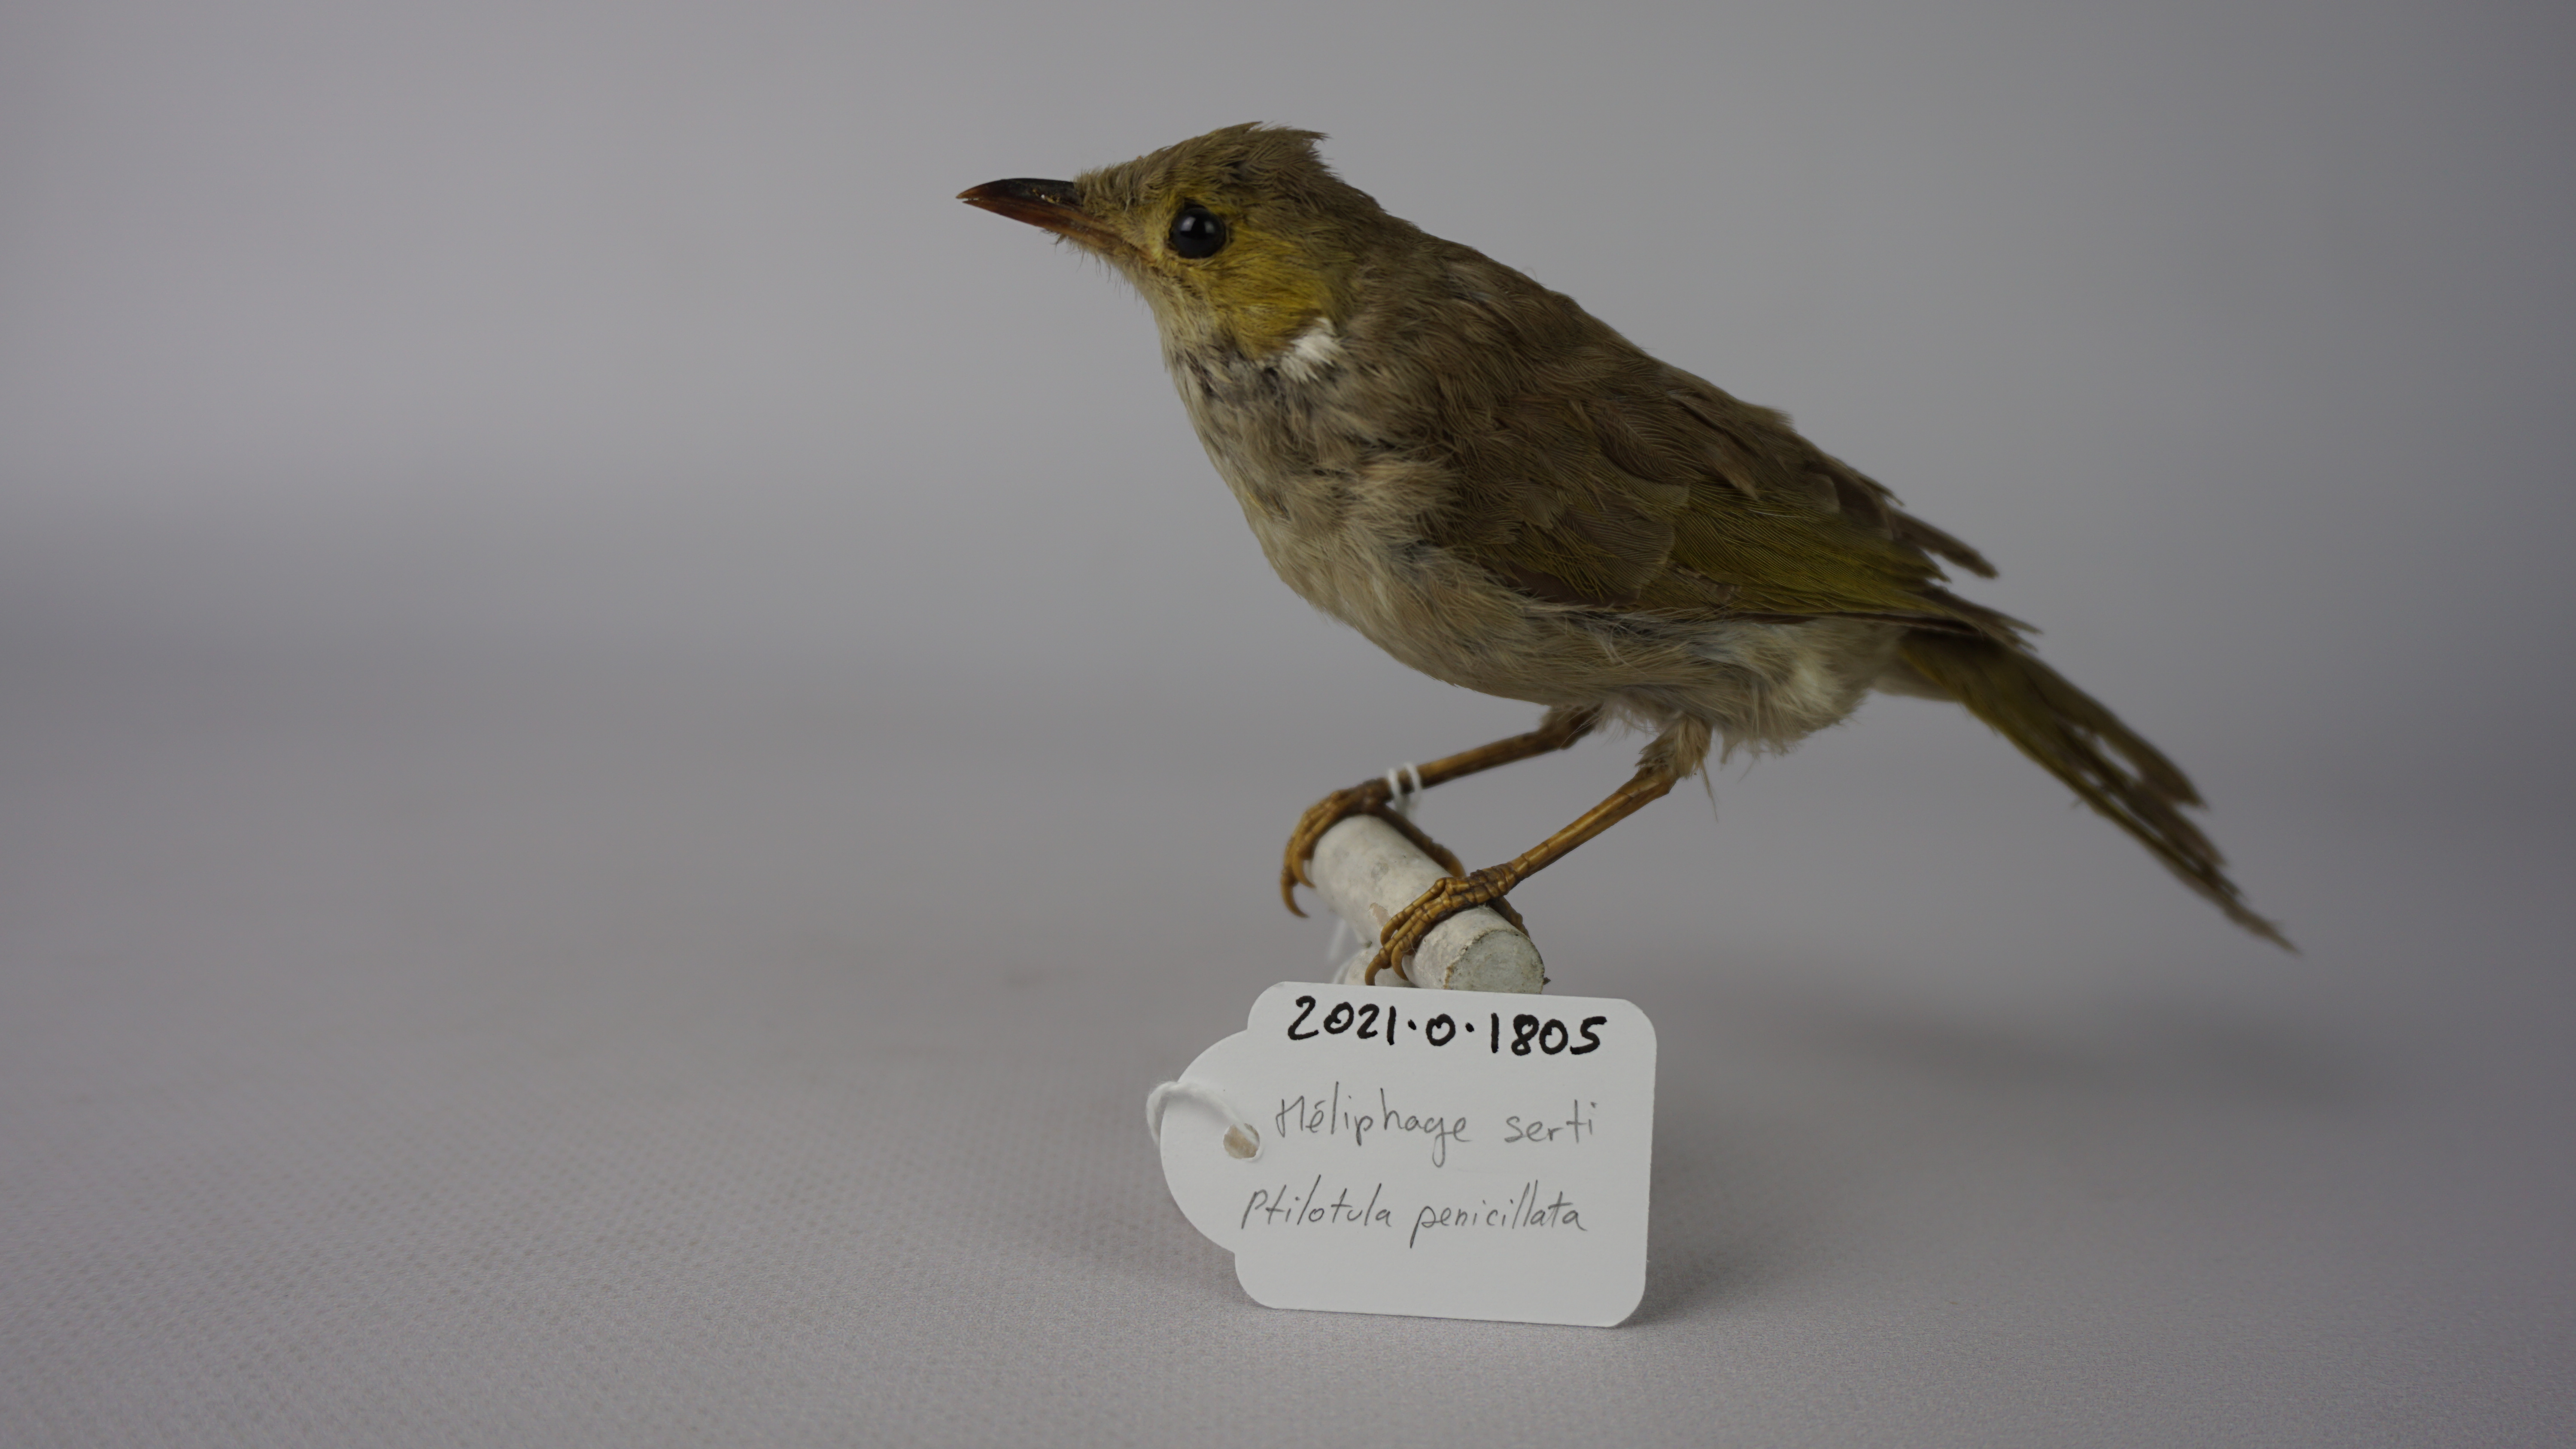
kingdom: Animalia
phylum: Chordata
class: Aves
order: Passeriformes
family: Meliphagidae
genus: Ptilotula
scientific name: Ptilotula penicillata
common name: White-plumed honeyeater
